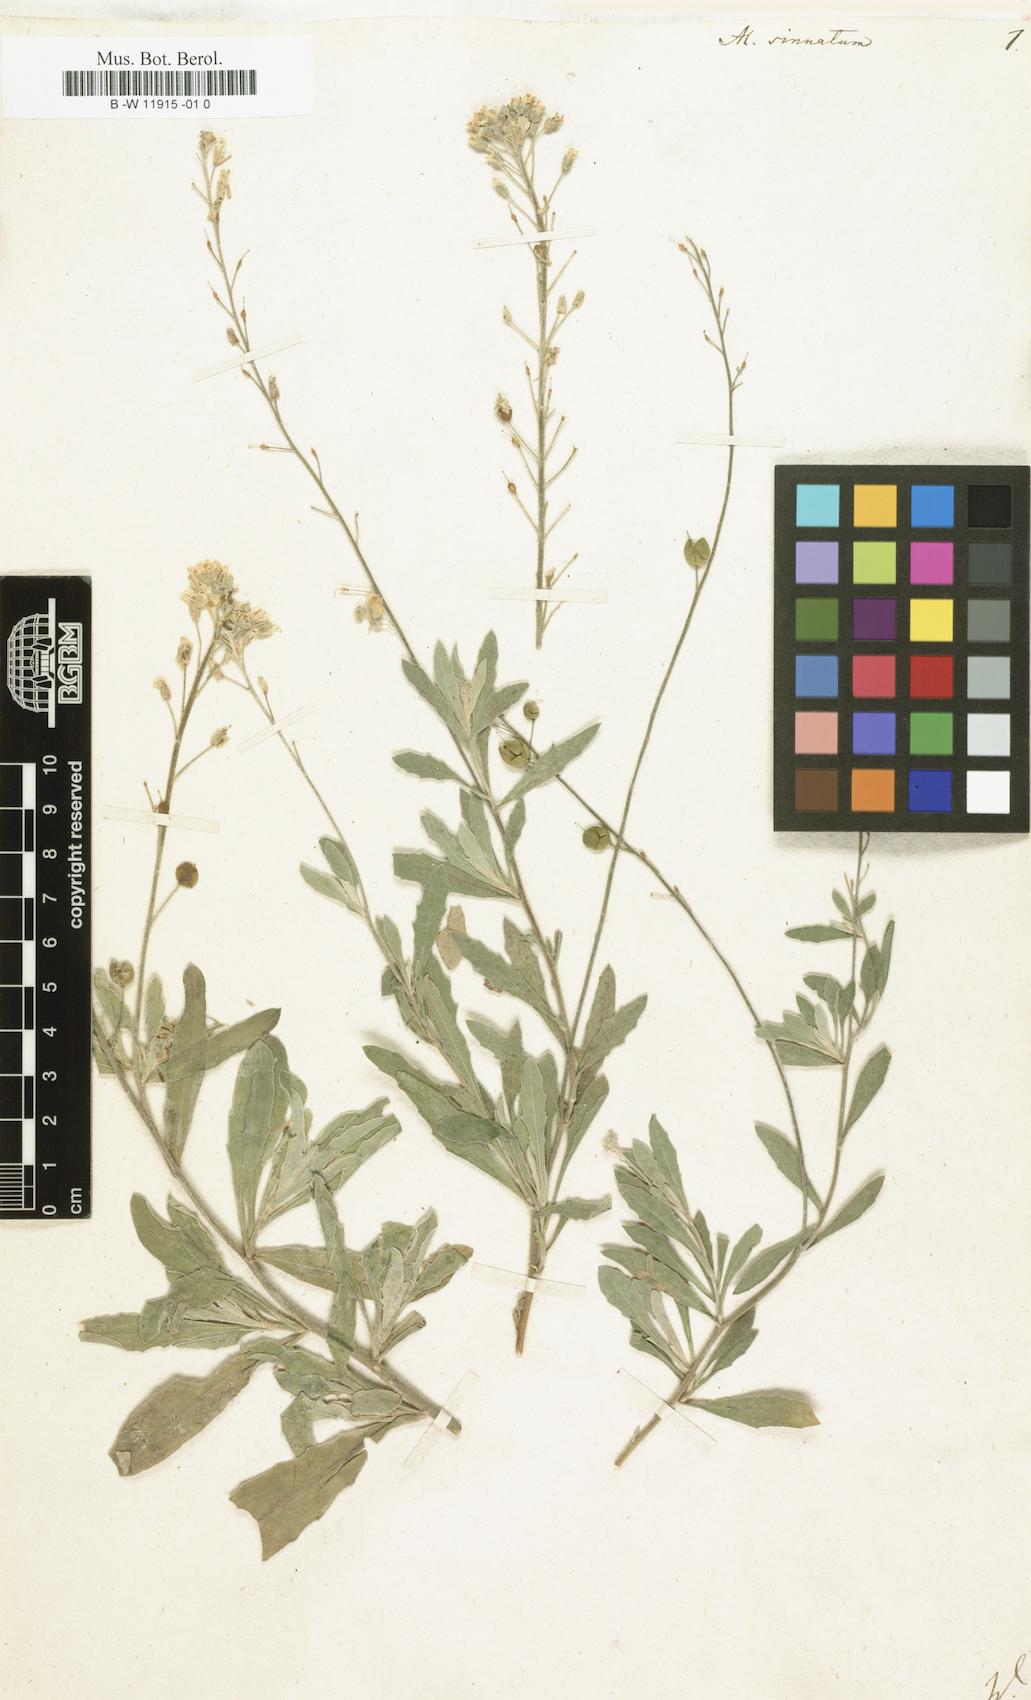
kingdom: Plantae
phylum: Tracheophyta
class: Magnoliopsida
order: Brassicales
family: Brassicaceae
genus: Aurinia
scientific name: Aurinia sinuata
